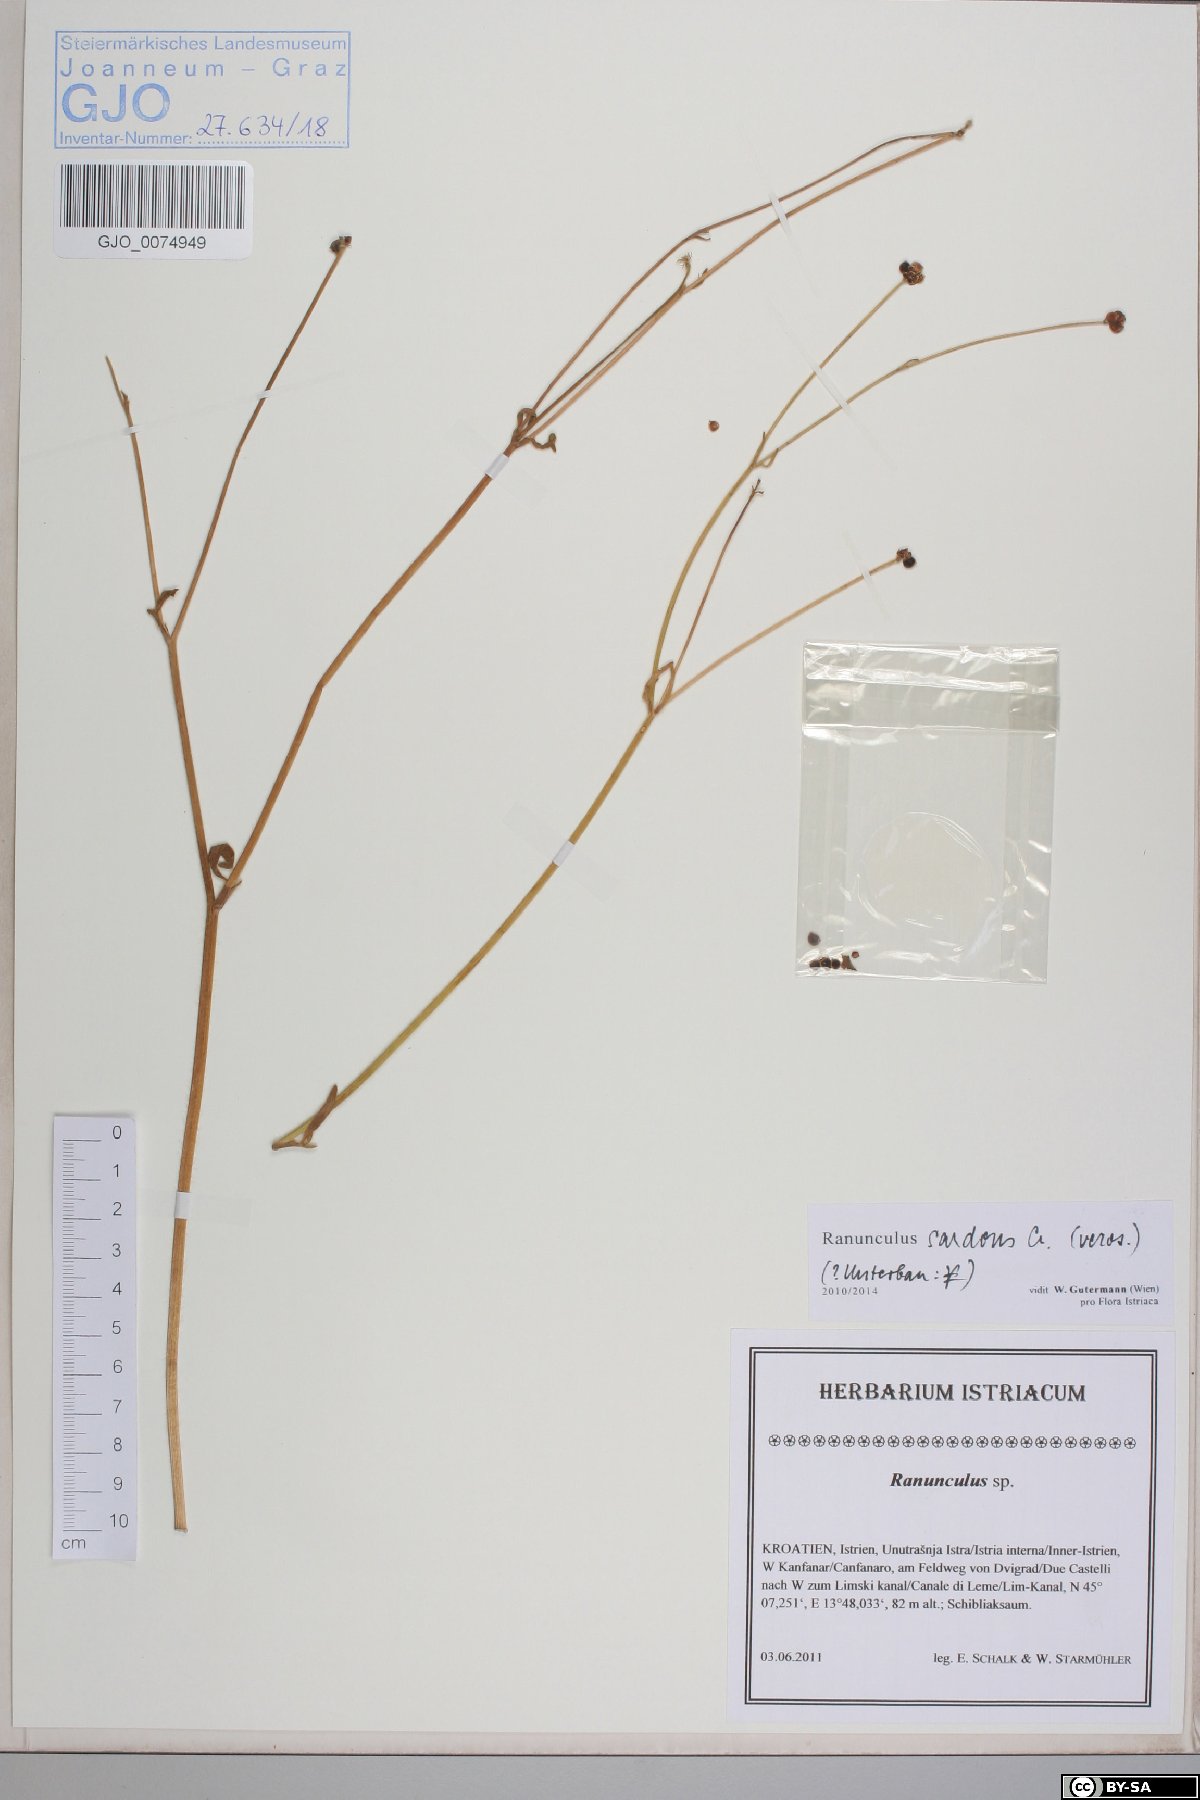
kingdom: Plantae
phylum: Tracheophyta
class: Magnoliopsida
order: Ranunculales
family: Ranunculaceae
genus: Ranunculus
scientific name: Ranunculus sardous
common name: Hairy buttercup
